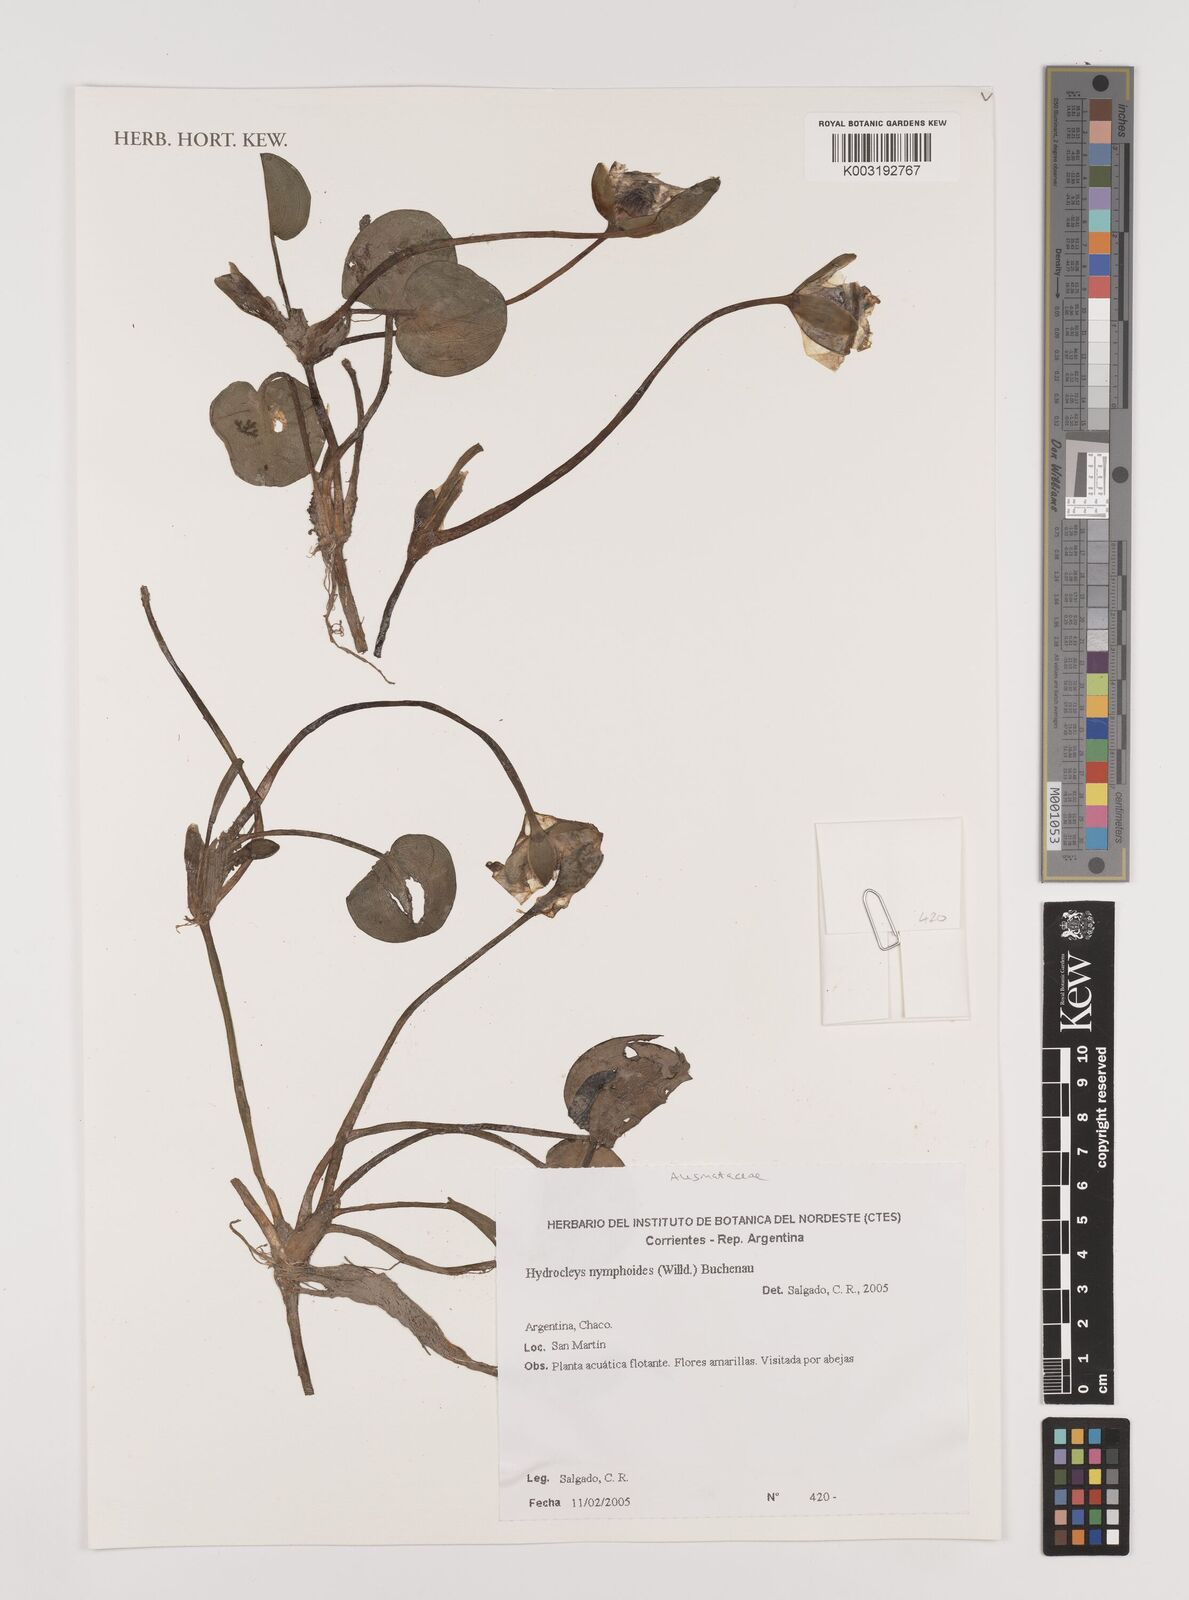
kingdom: Plantae
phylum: Tracheophyta
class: Liliopsida
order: Alismatales
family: Alismataceae
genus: Hydrocleys
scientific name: Hydrocleys nymphoides
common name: Water-poppy
